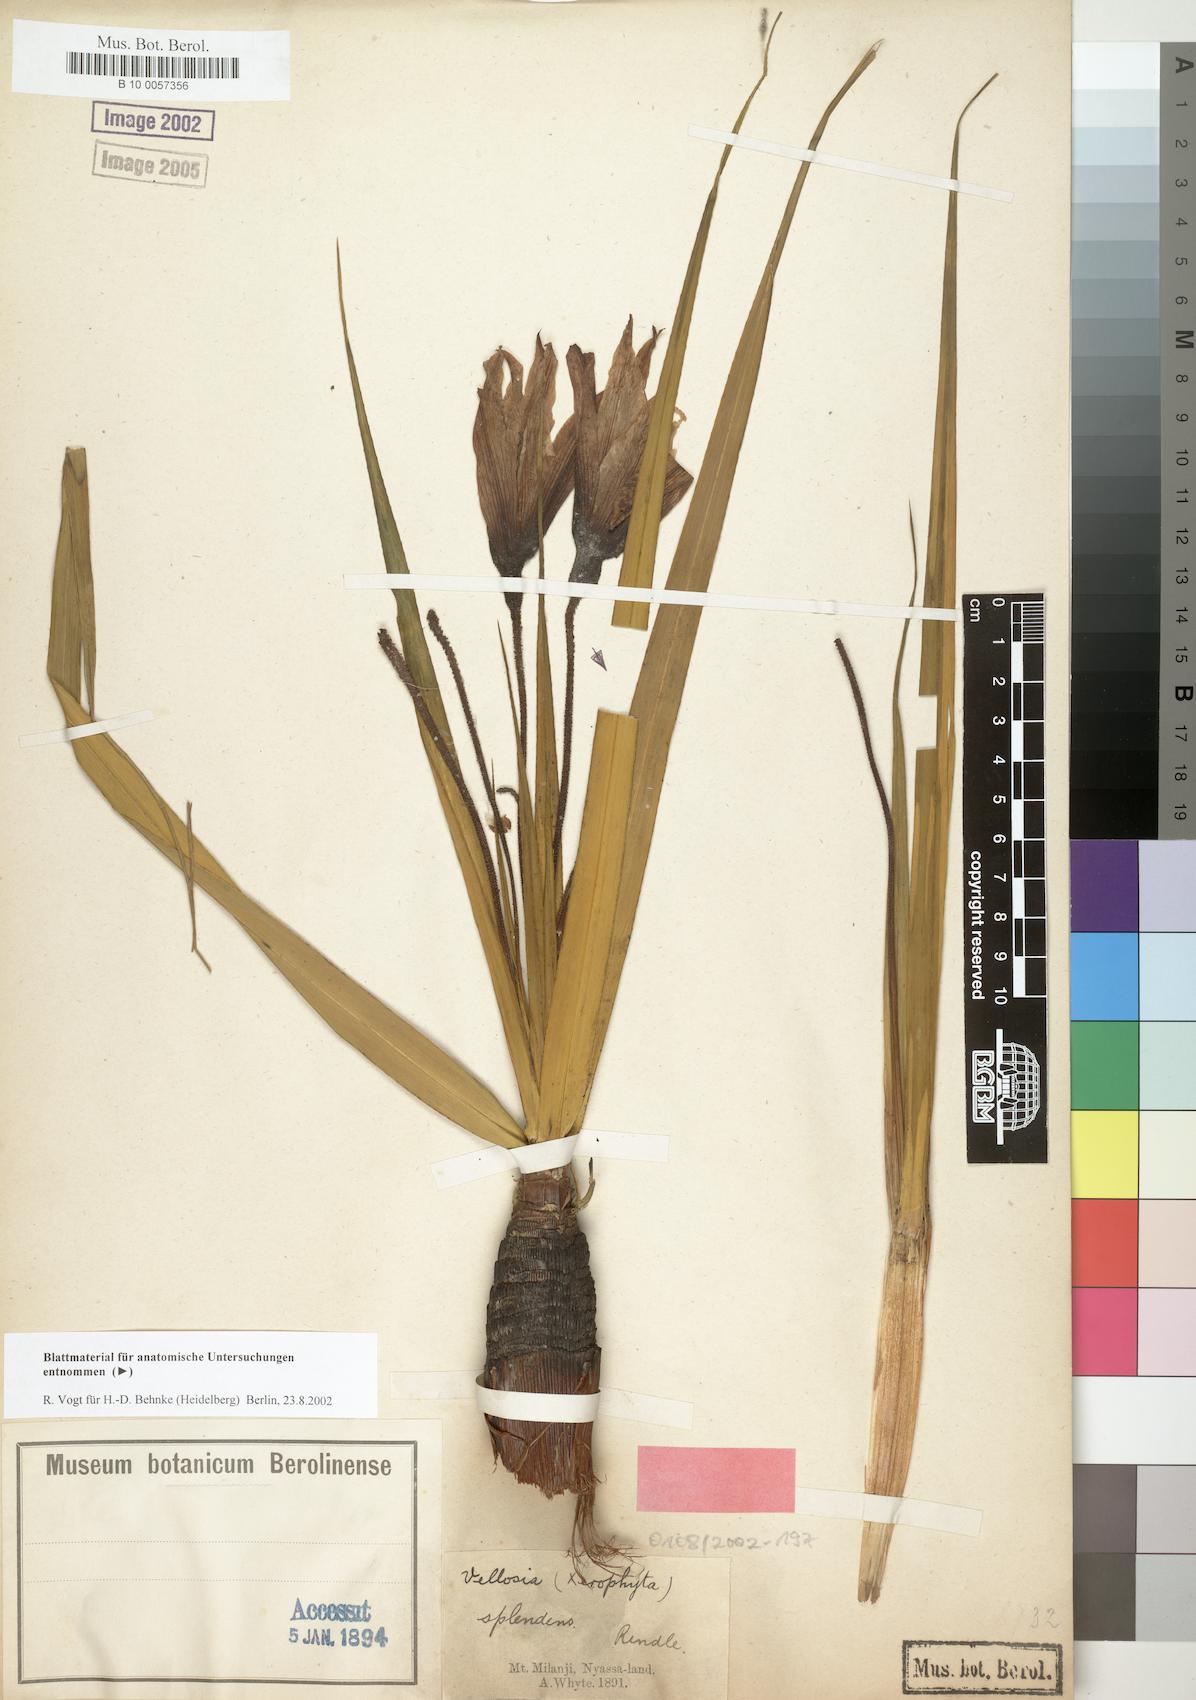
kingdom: Plantae
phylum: Tracheophyta
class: Liliopsida
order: Pandanales
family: Velloziaceae
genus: Xerophyta
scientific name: Xerophyta splendens
